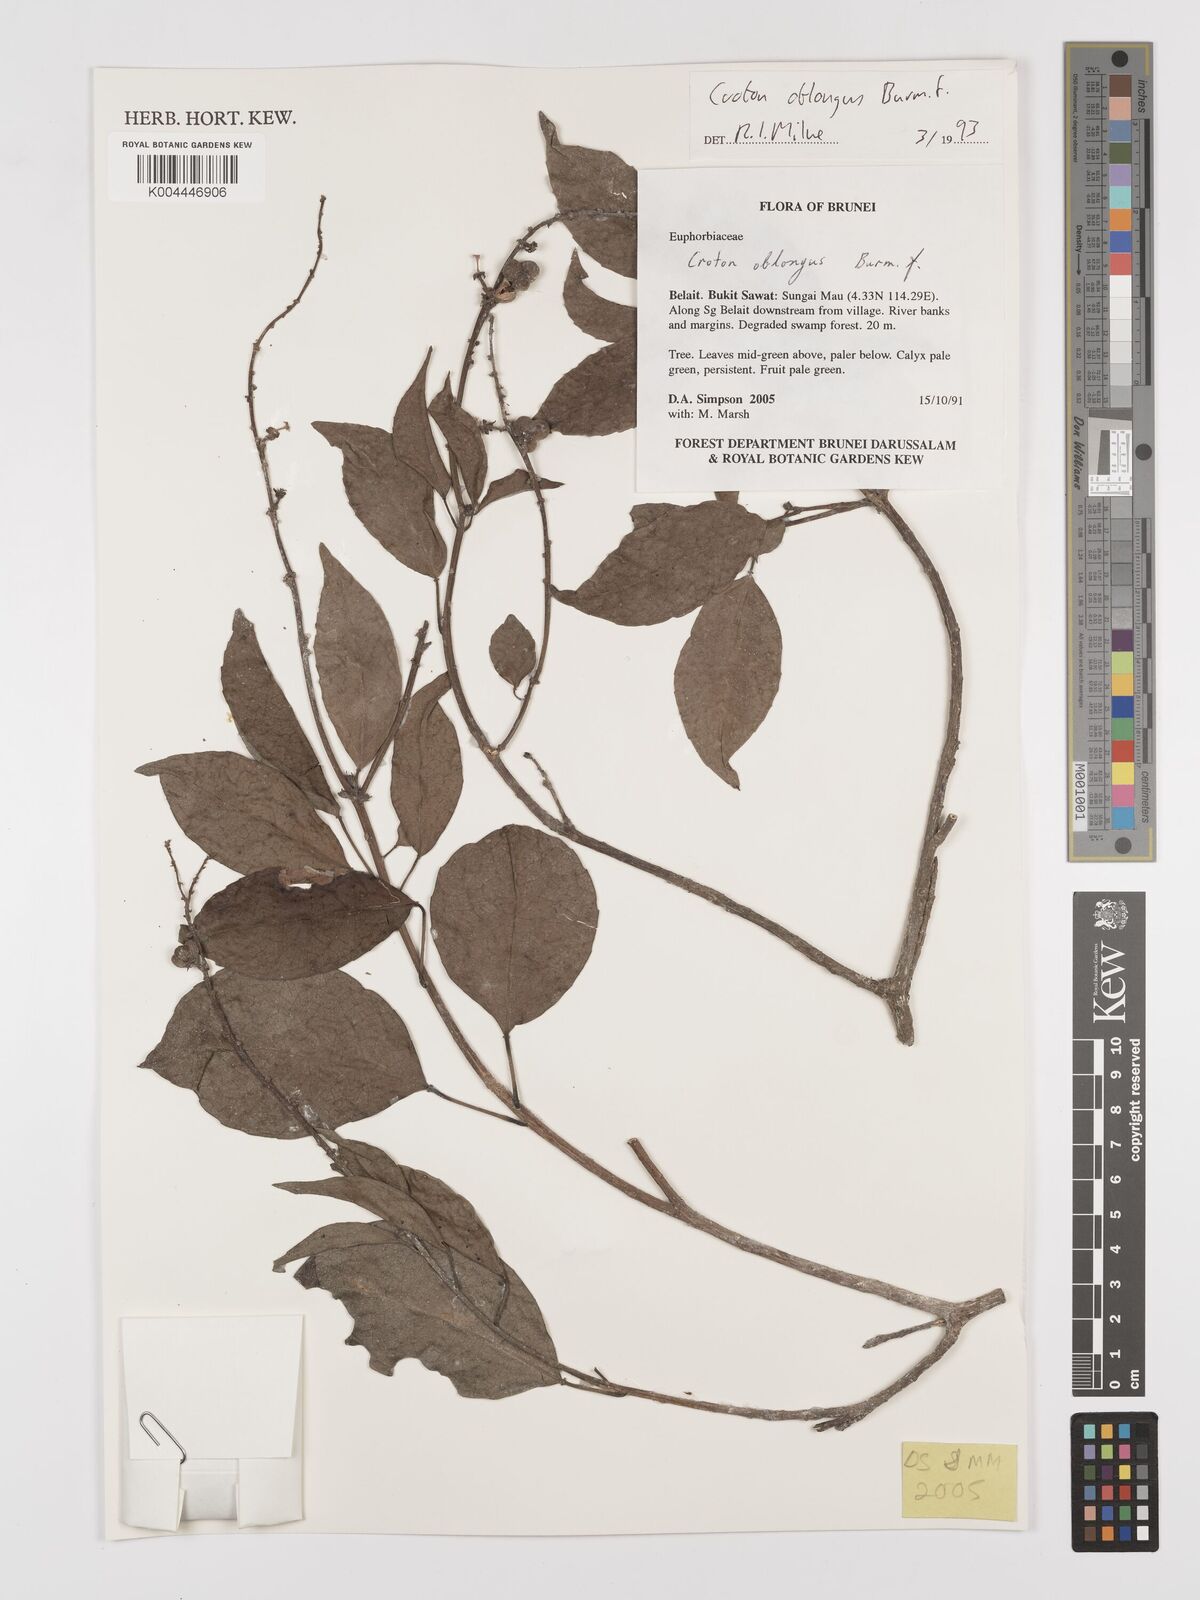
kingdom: Plantae
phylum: Tracheophyta
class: Magnoliopsida
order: Malpighiales
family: Euphorbiaceae
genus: Croton
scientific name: Croton oblongus
